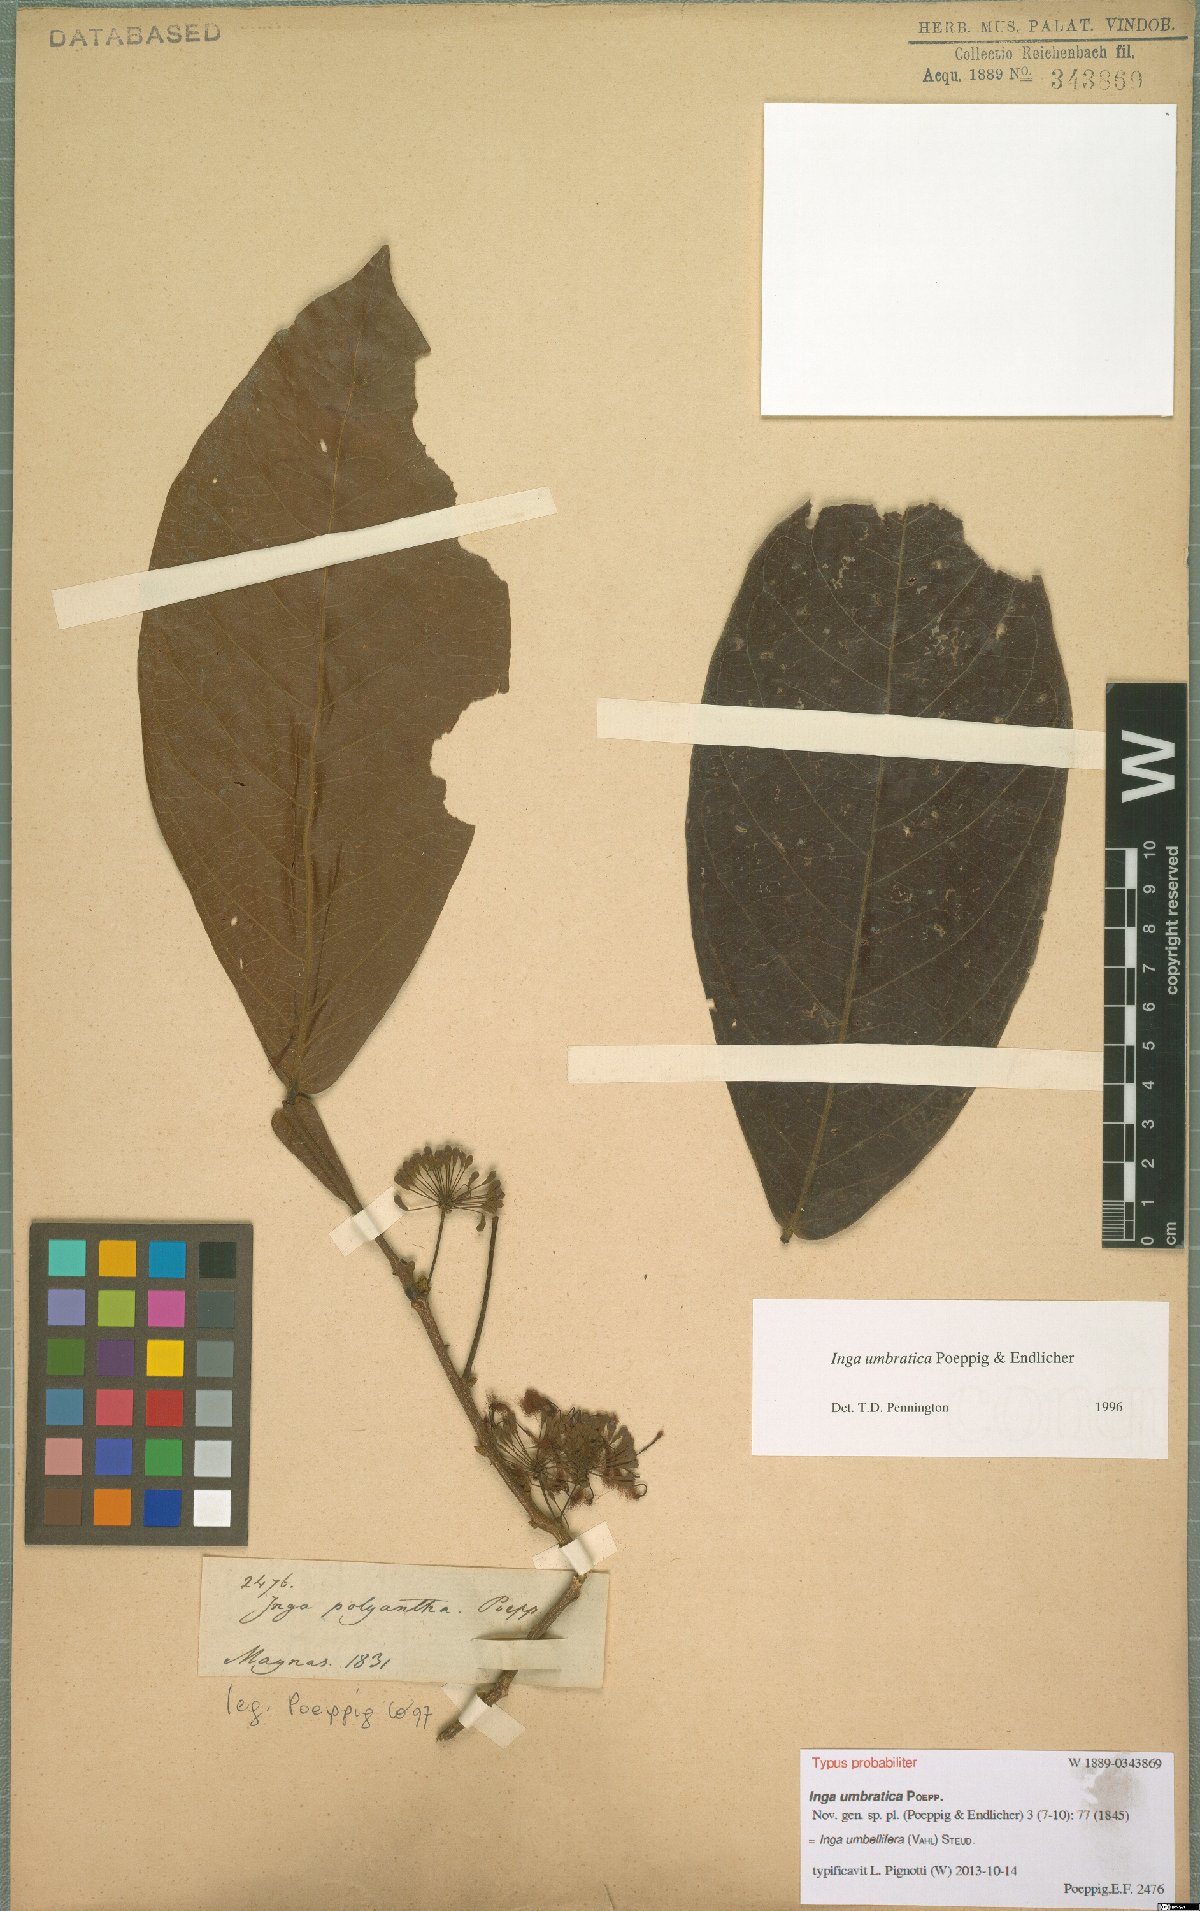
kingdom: Plantae
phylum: Tracheophyta
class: Magnoliopsida
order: Fabales
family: Fabaceae
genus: Inga
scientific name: Inga umbellifera
